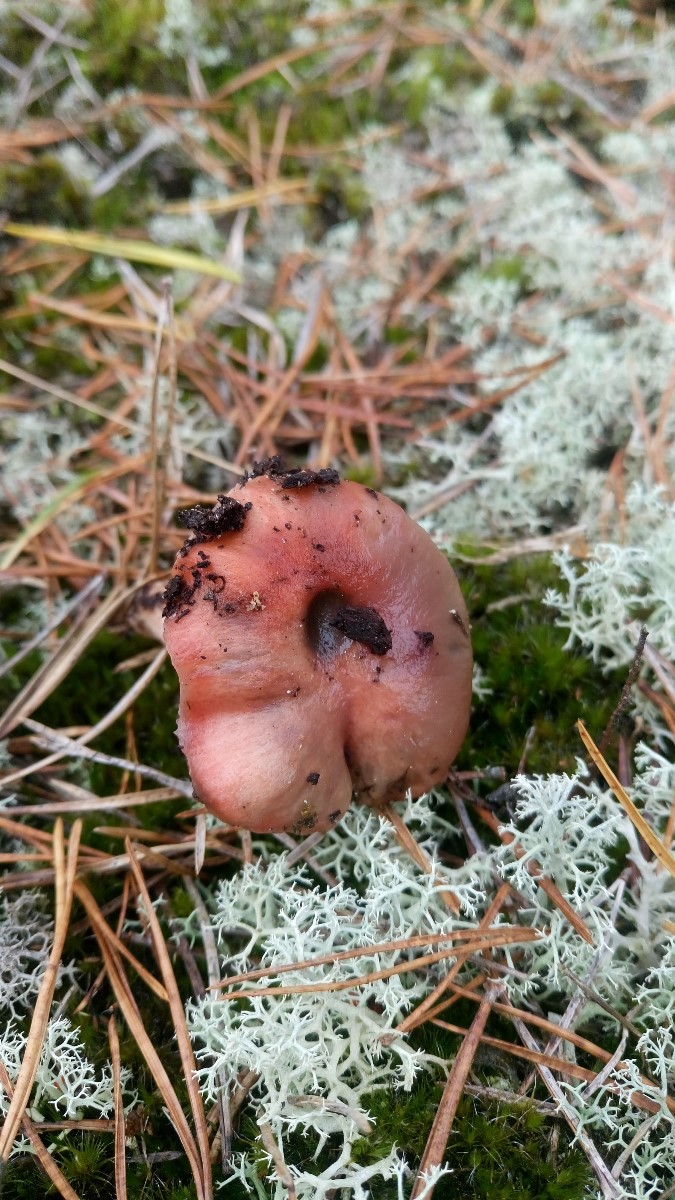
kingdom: Fungi
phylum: Basidiomycota
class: Agaricomycetes
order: Boletales
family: Gomphidiaceae
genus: Gomphidius
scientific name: Gomphidius roseus
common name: rosenrød slimslør
